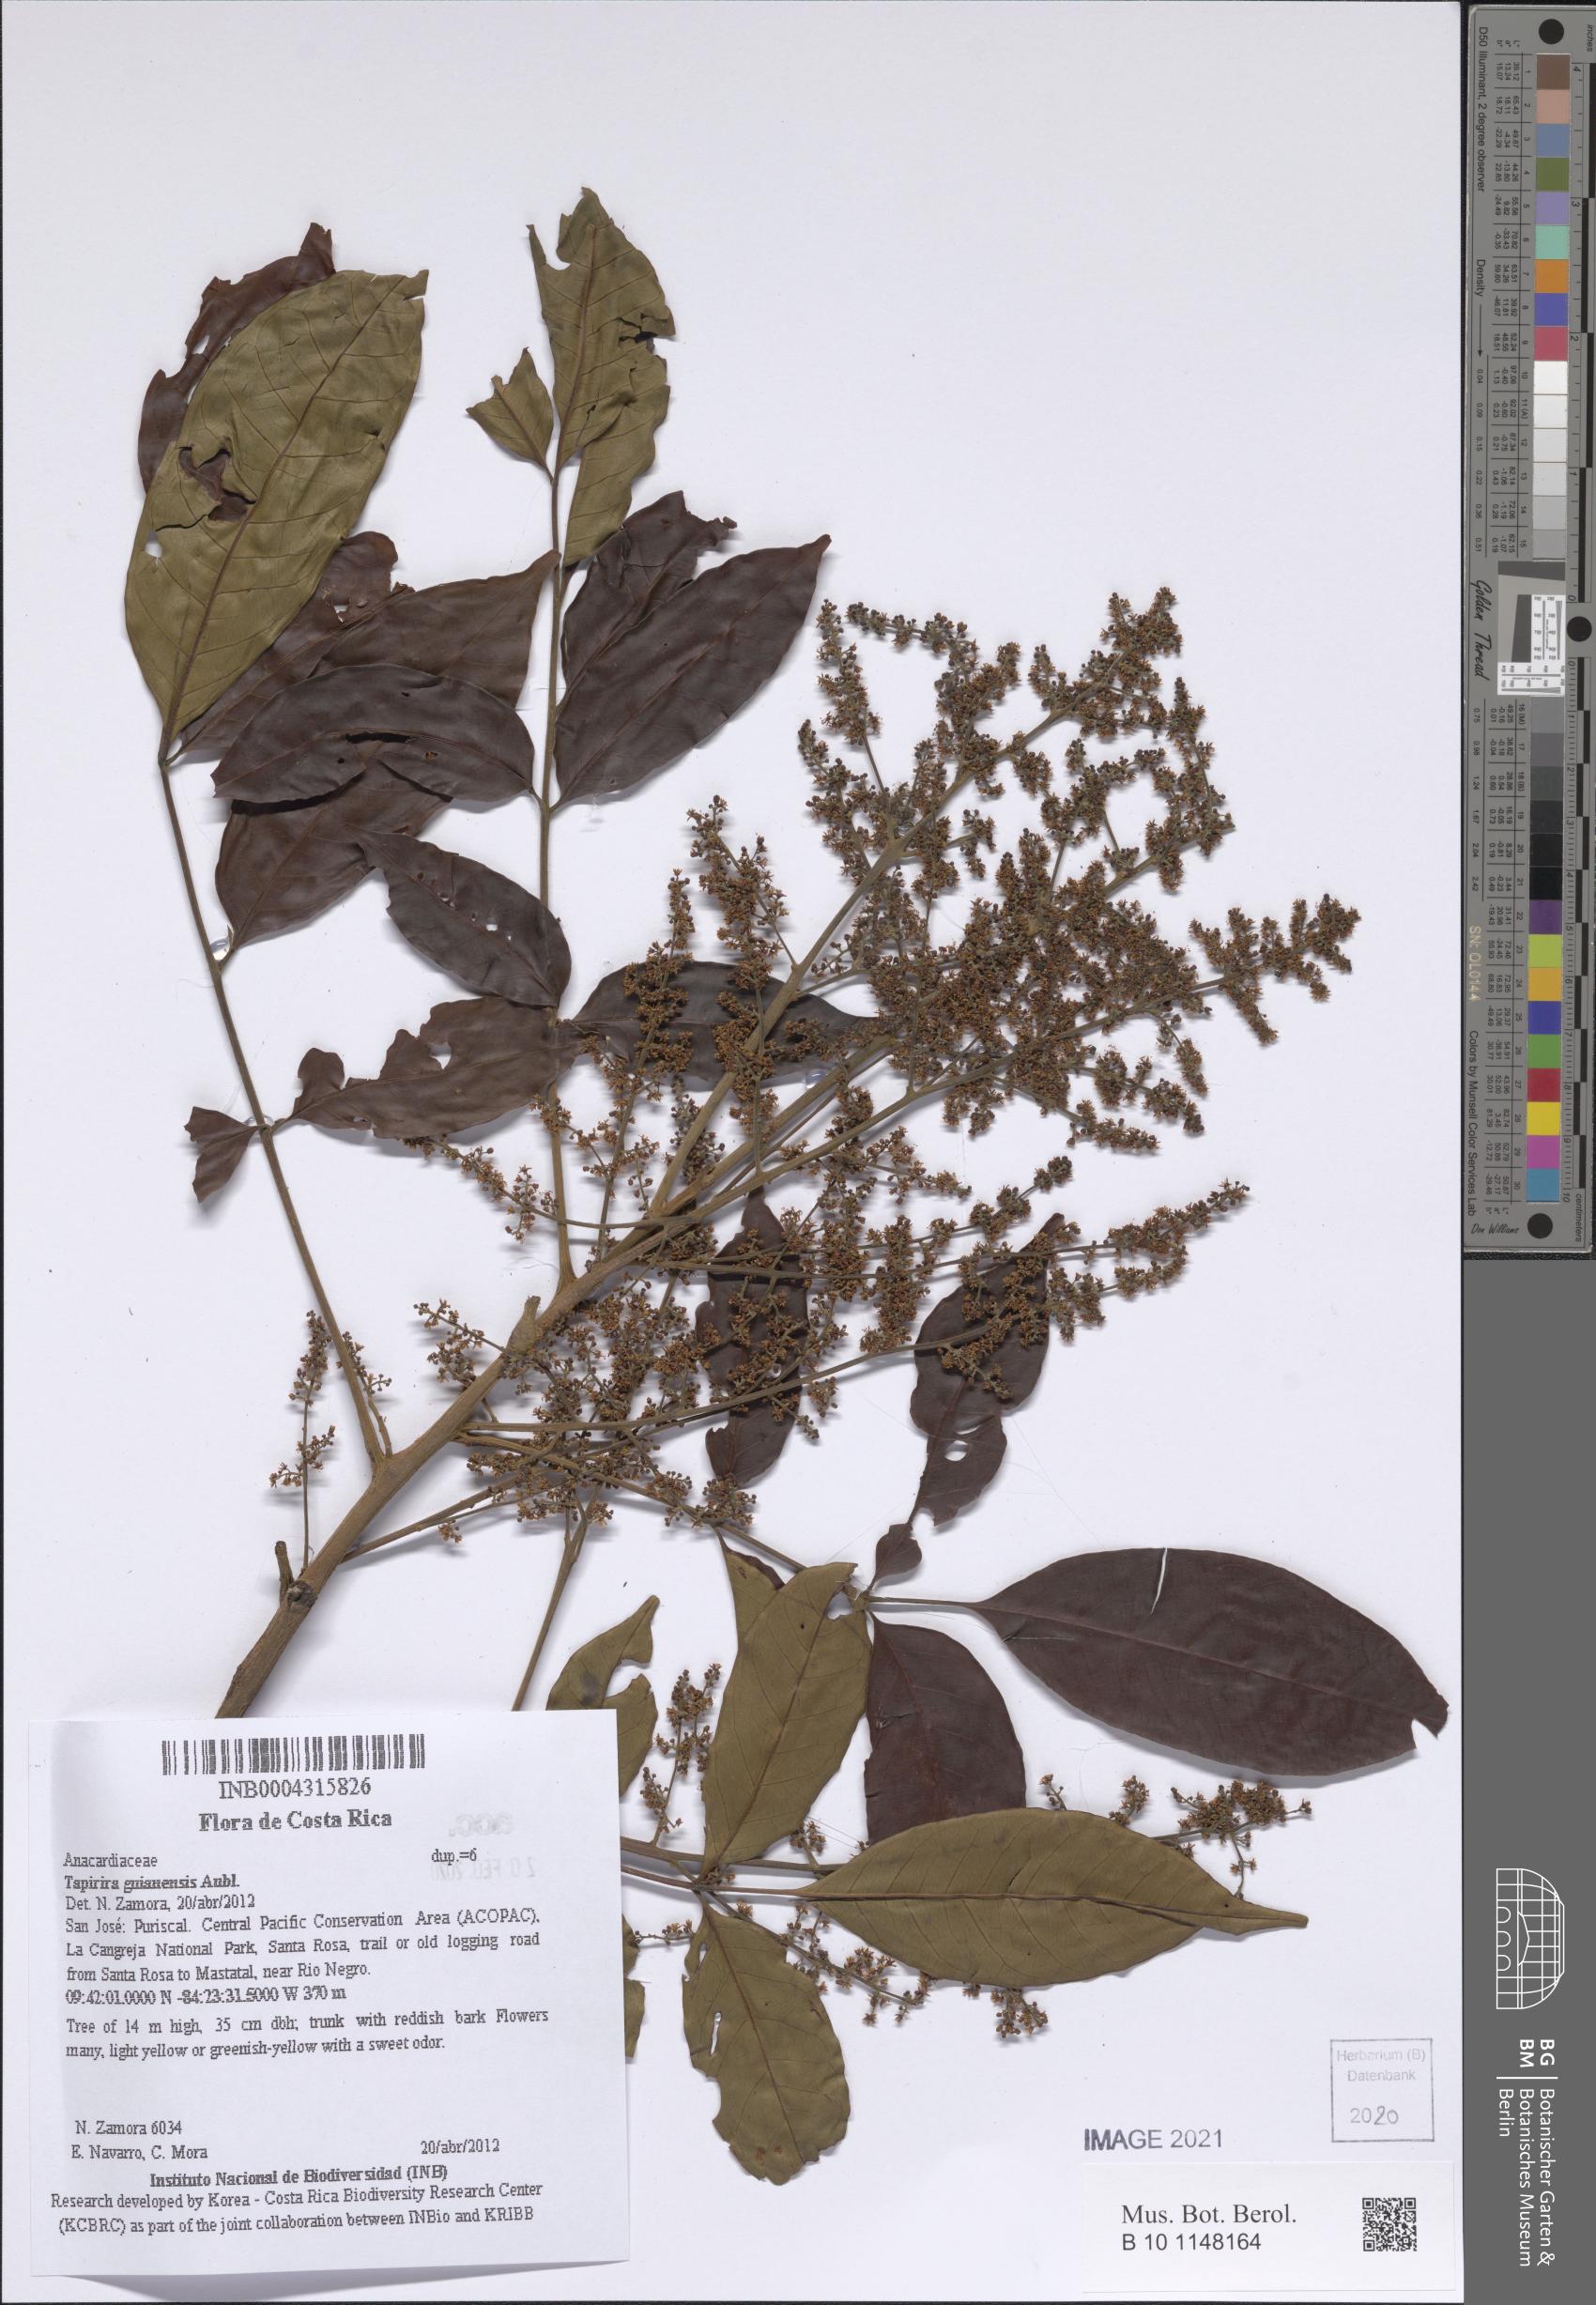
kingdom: Plantae
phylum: Tracheophyta
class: Magnoliopsida
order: Sapindales
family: Anacardiaceae
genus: Tapirira
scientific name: Tapirira guianensis
